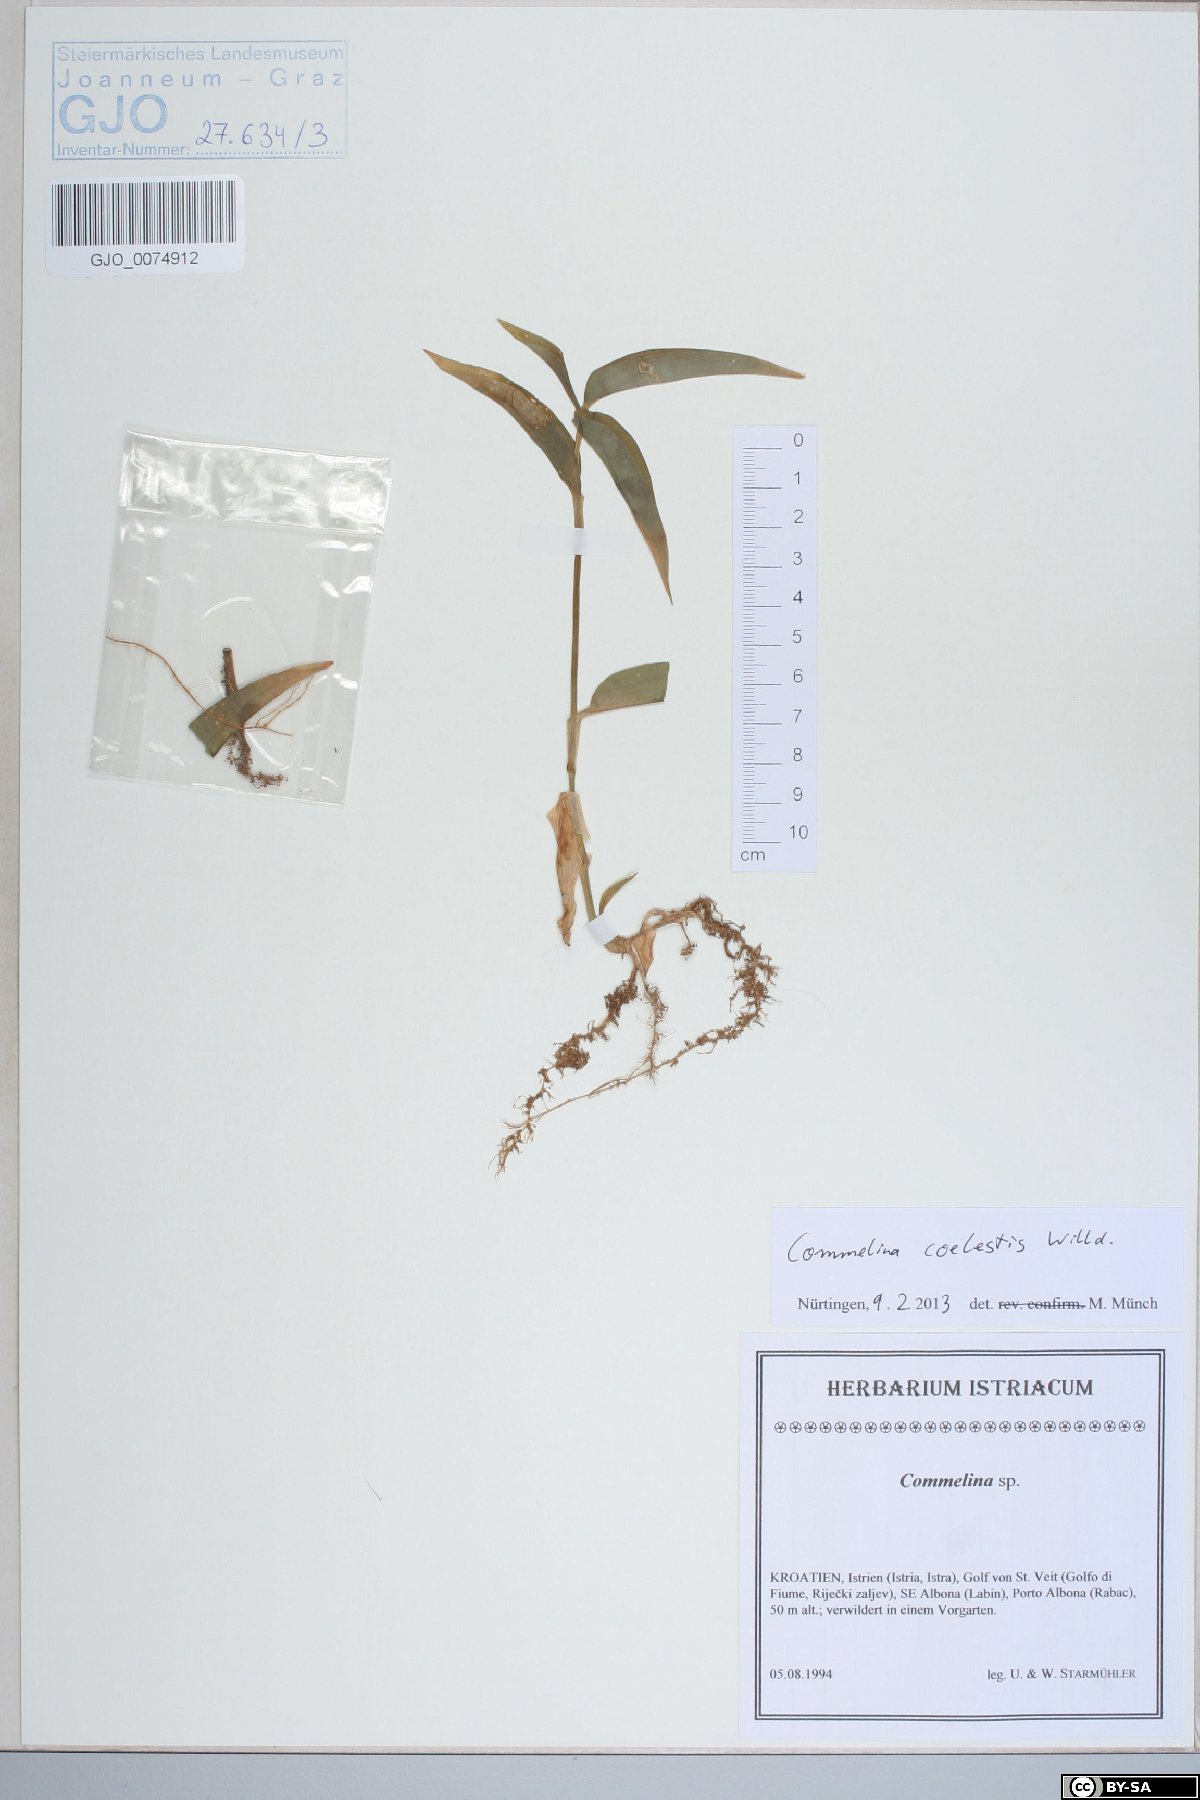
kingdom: Plantae
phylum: Tracheophyta
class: Liliopsida
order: Commelinales
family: Commelinaceae
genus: Commelina
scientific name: Commelina tuberosa
